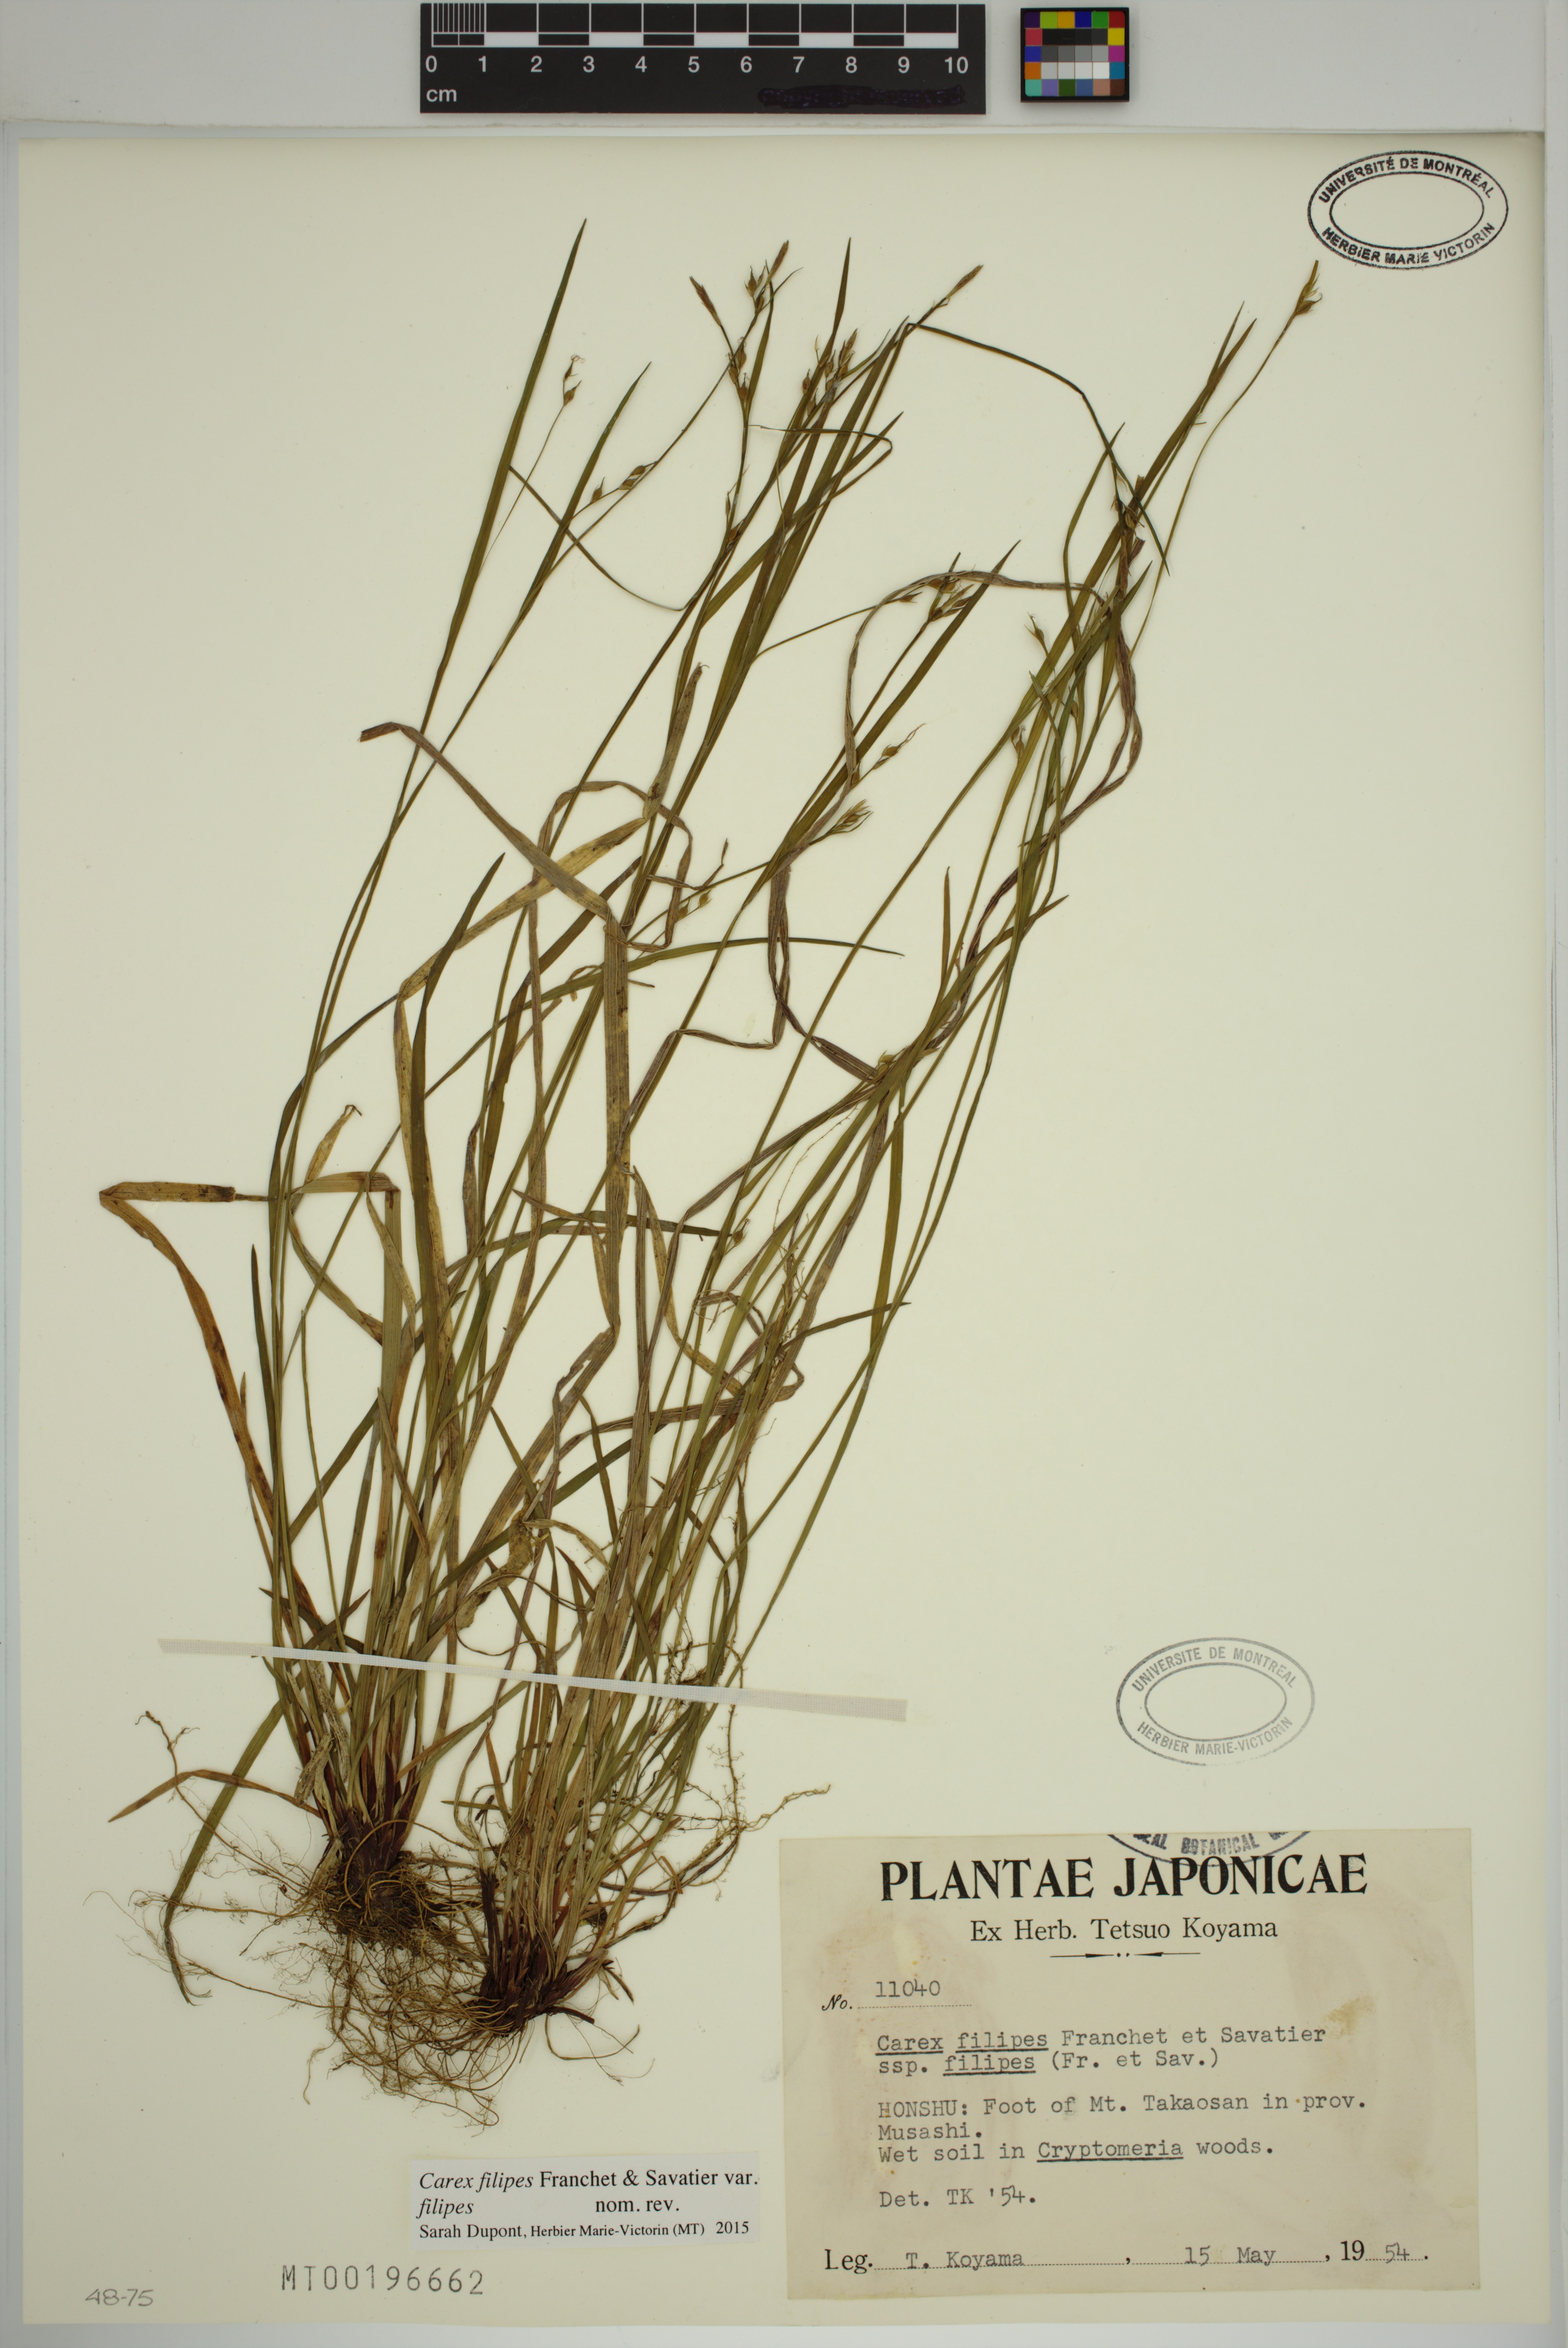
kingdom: Plantae
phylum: Tracheophyta
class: Liliopsida
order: Poales
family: Cyperaceae
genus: Carex
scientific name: Carex filipes
